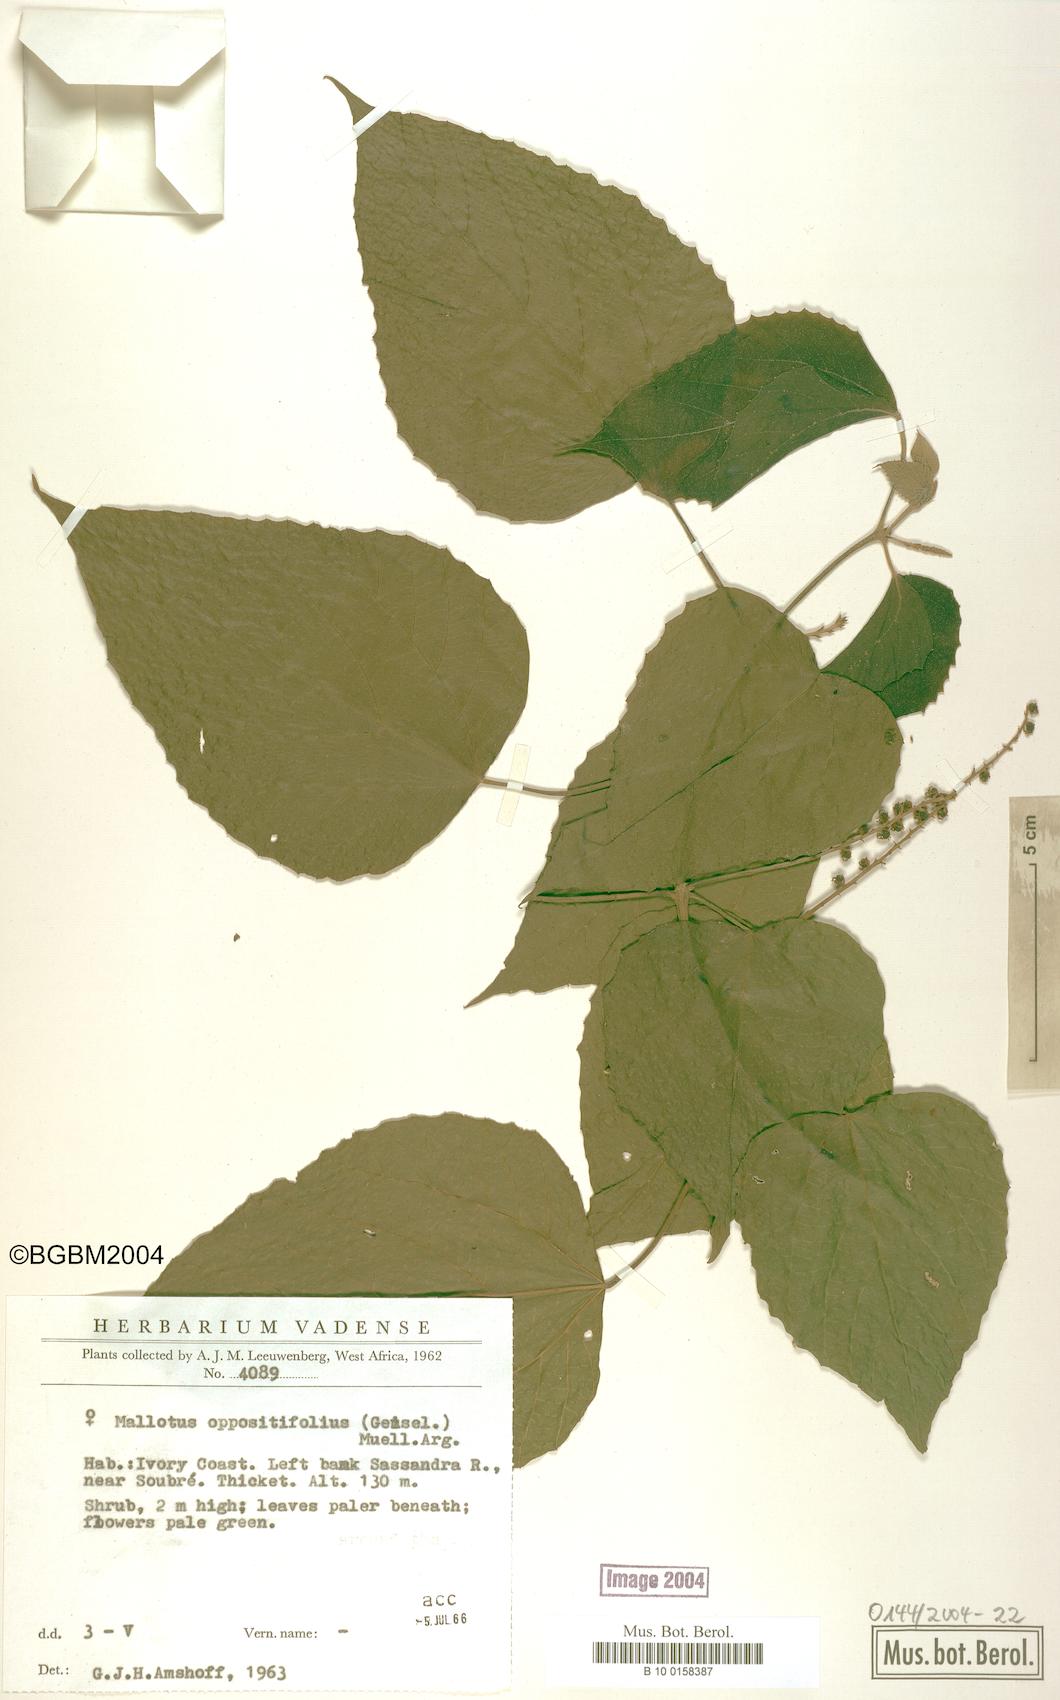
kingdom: Plantae
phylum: Tracheophyta
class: Magnoliopsida
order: Malpighiales
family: Euphorbiaceae
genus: Mallotus
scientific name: Mallotus oppositifolius
